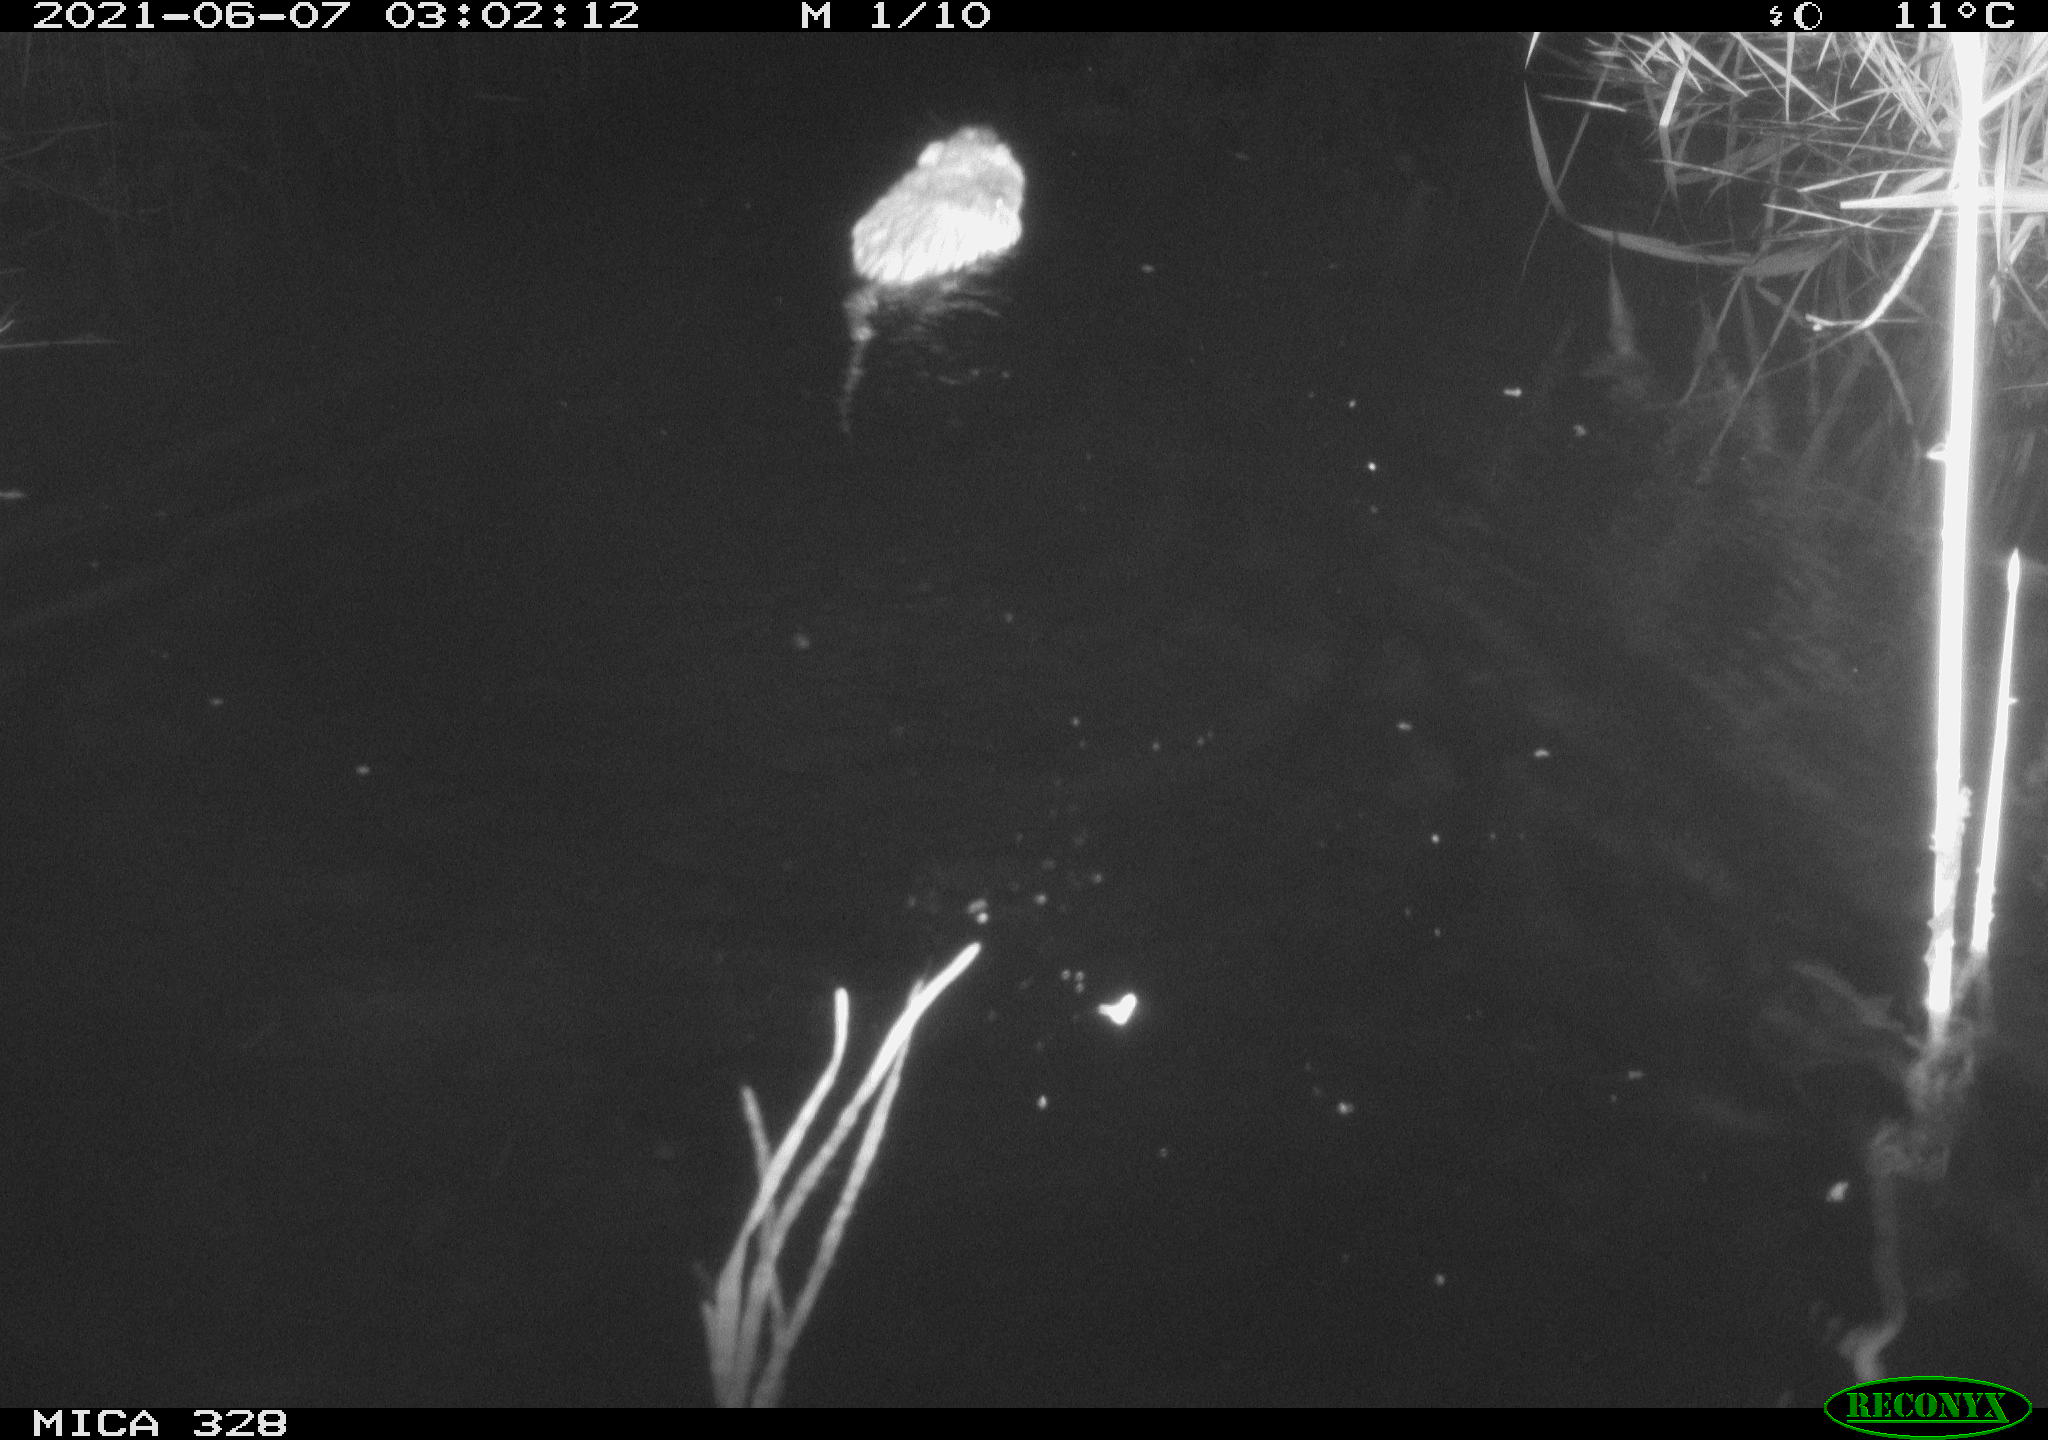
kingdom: Animalia
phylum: Chordata
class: Mammalia
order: Rodentia
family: Cricetidae
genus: Ondatra
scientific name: Ondatra zibethicus
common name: Muskrat
